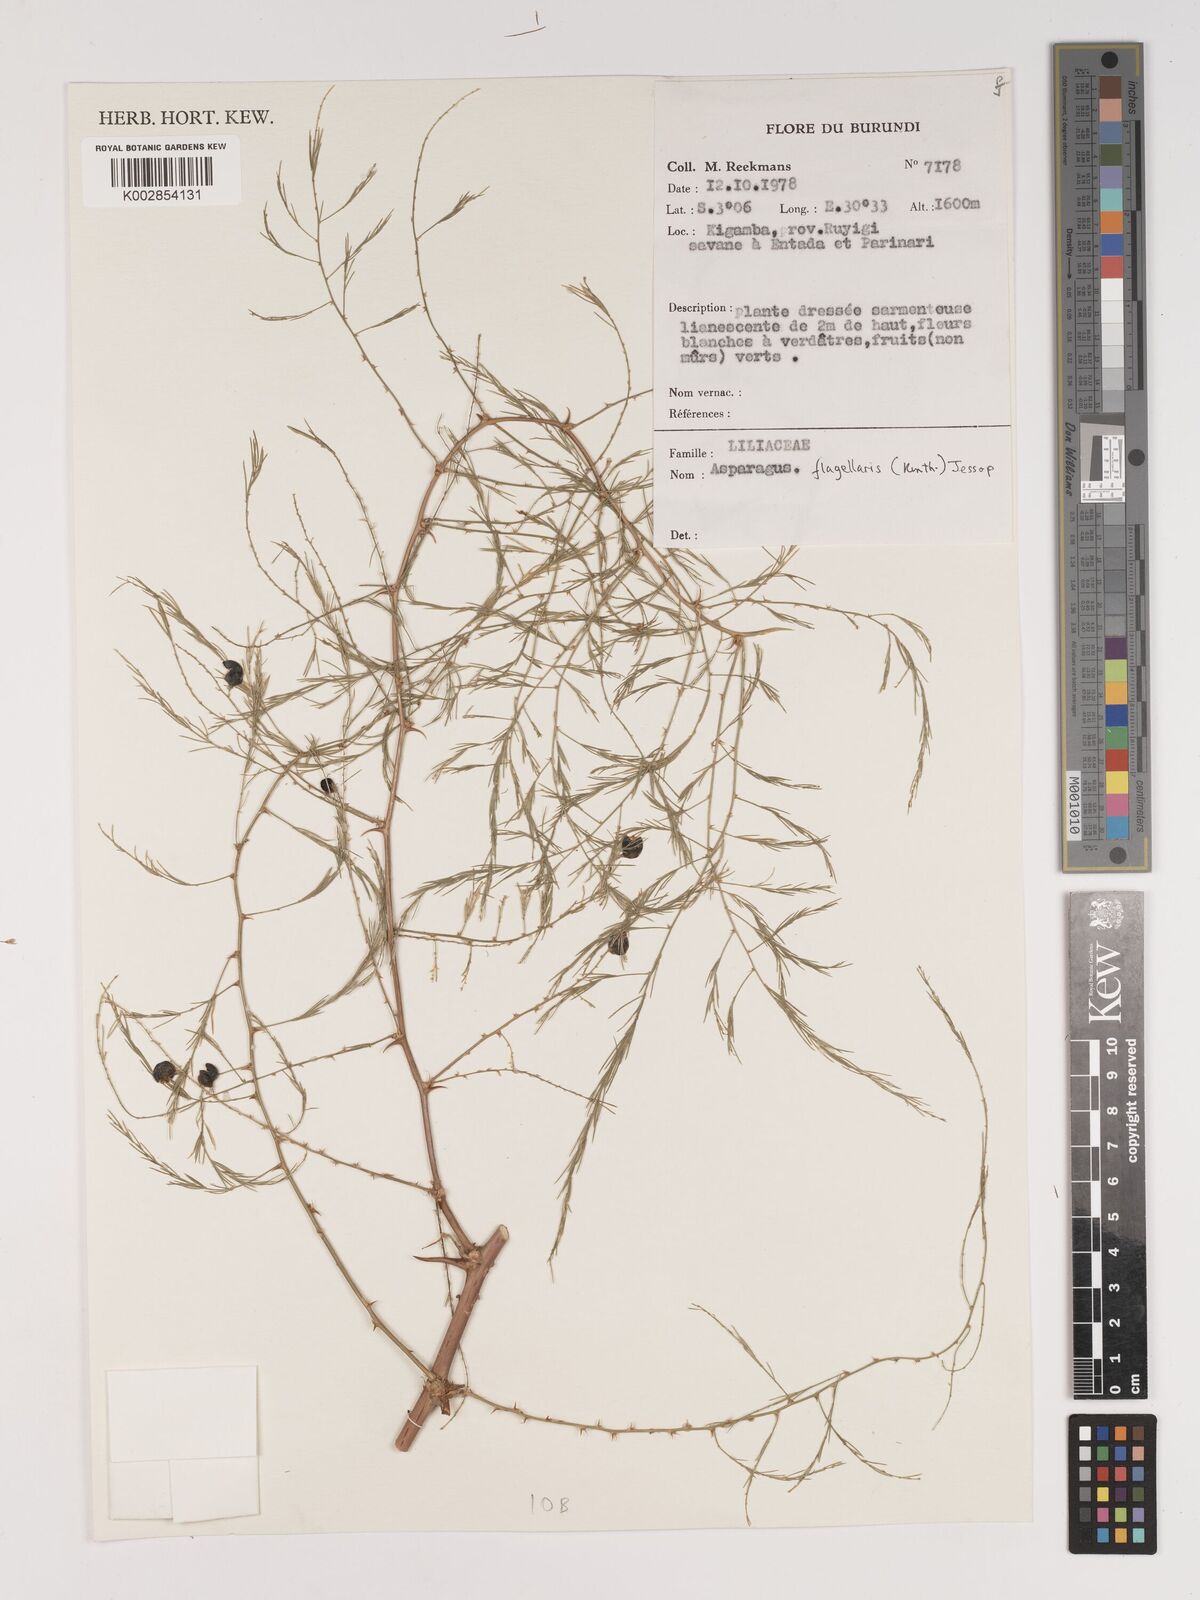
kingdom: Plantae
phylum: Tracheophyta
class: Liliopsida
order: Asparagales
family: Asparagaceae
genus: Asparagus
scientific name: Asparagus flagellaris
